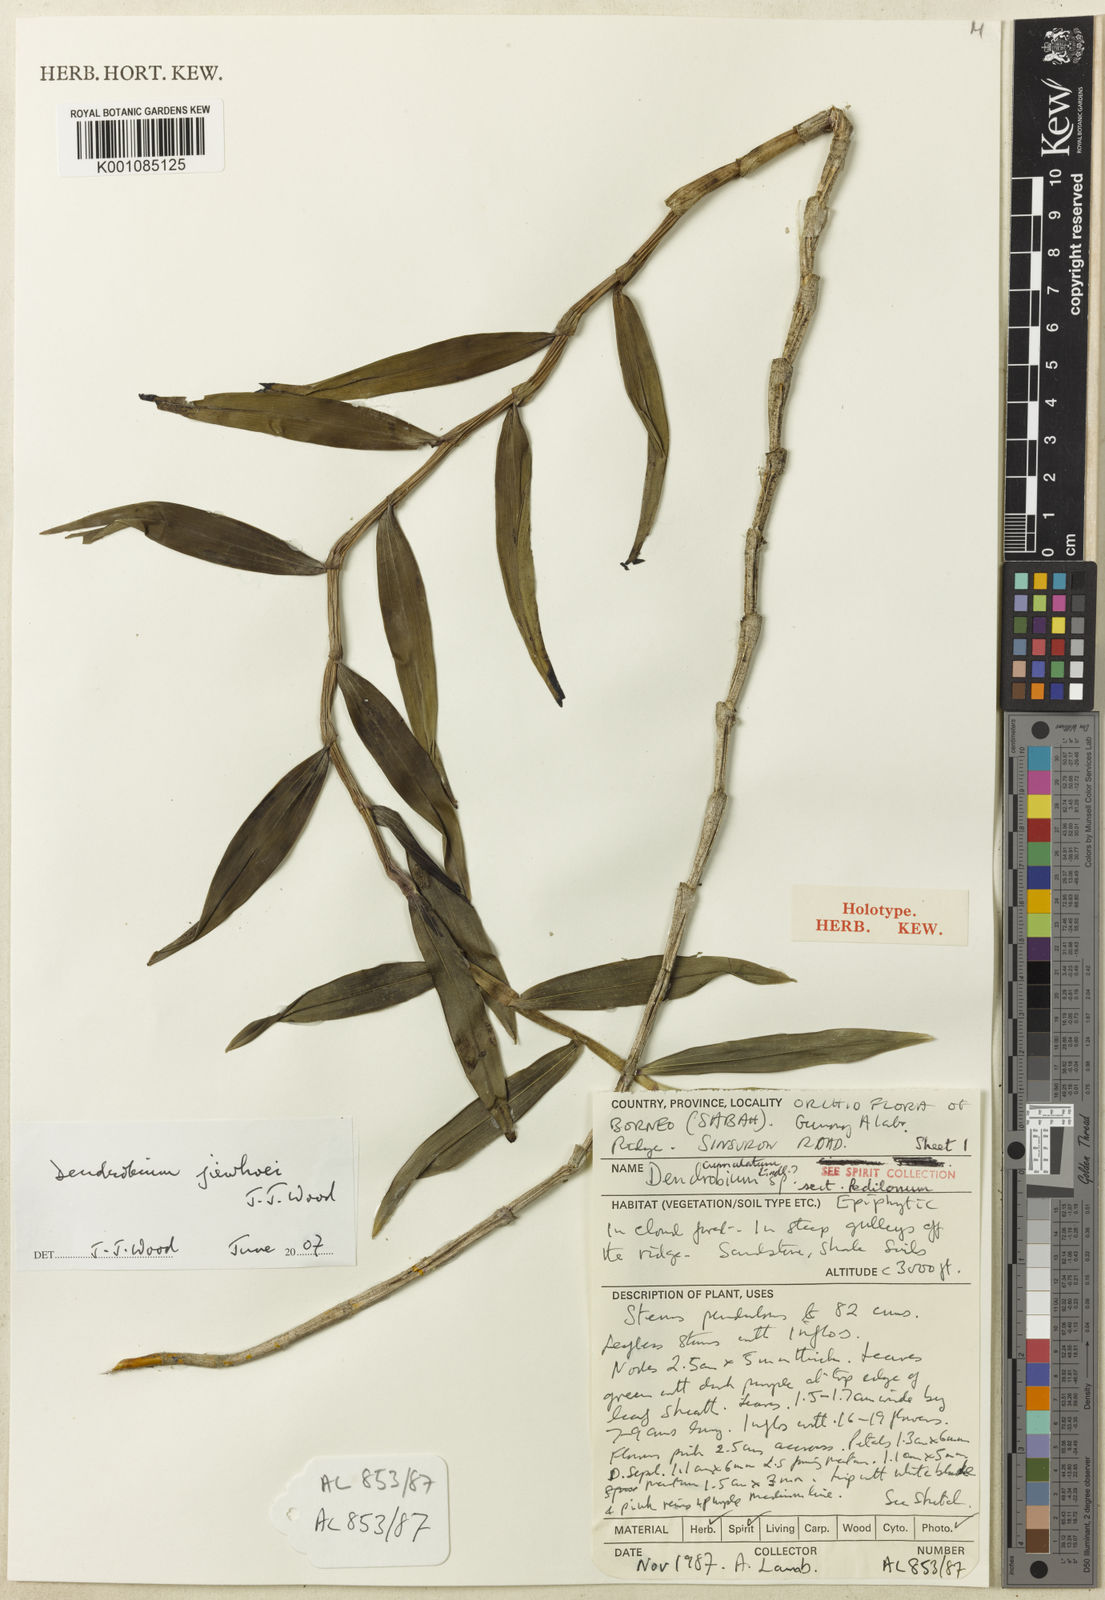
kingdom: Plantae
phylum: Tracheophyta
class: Liliopsida
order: Asparagales
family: Orchidaceae
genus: Dendrobium
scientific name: Dendrobium calcariferum
